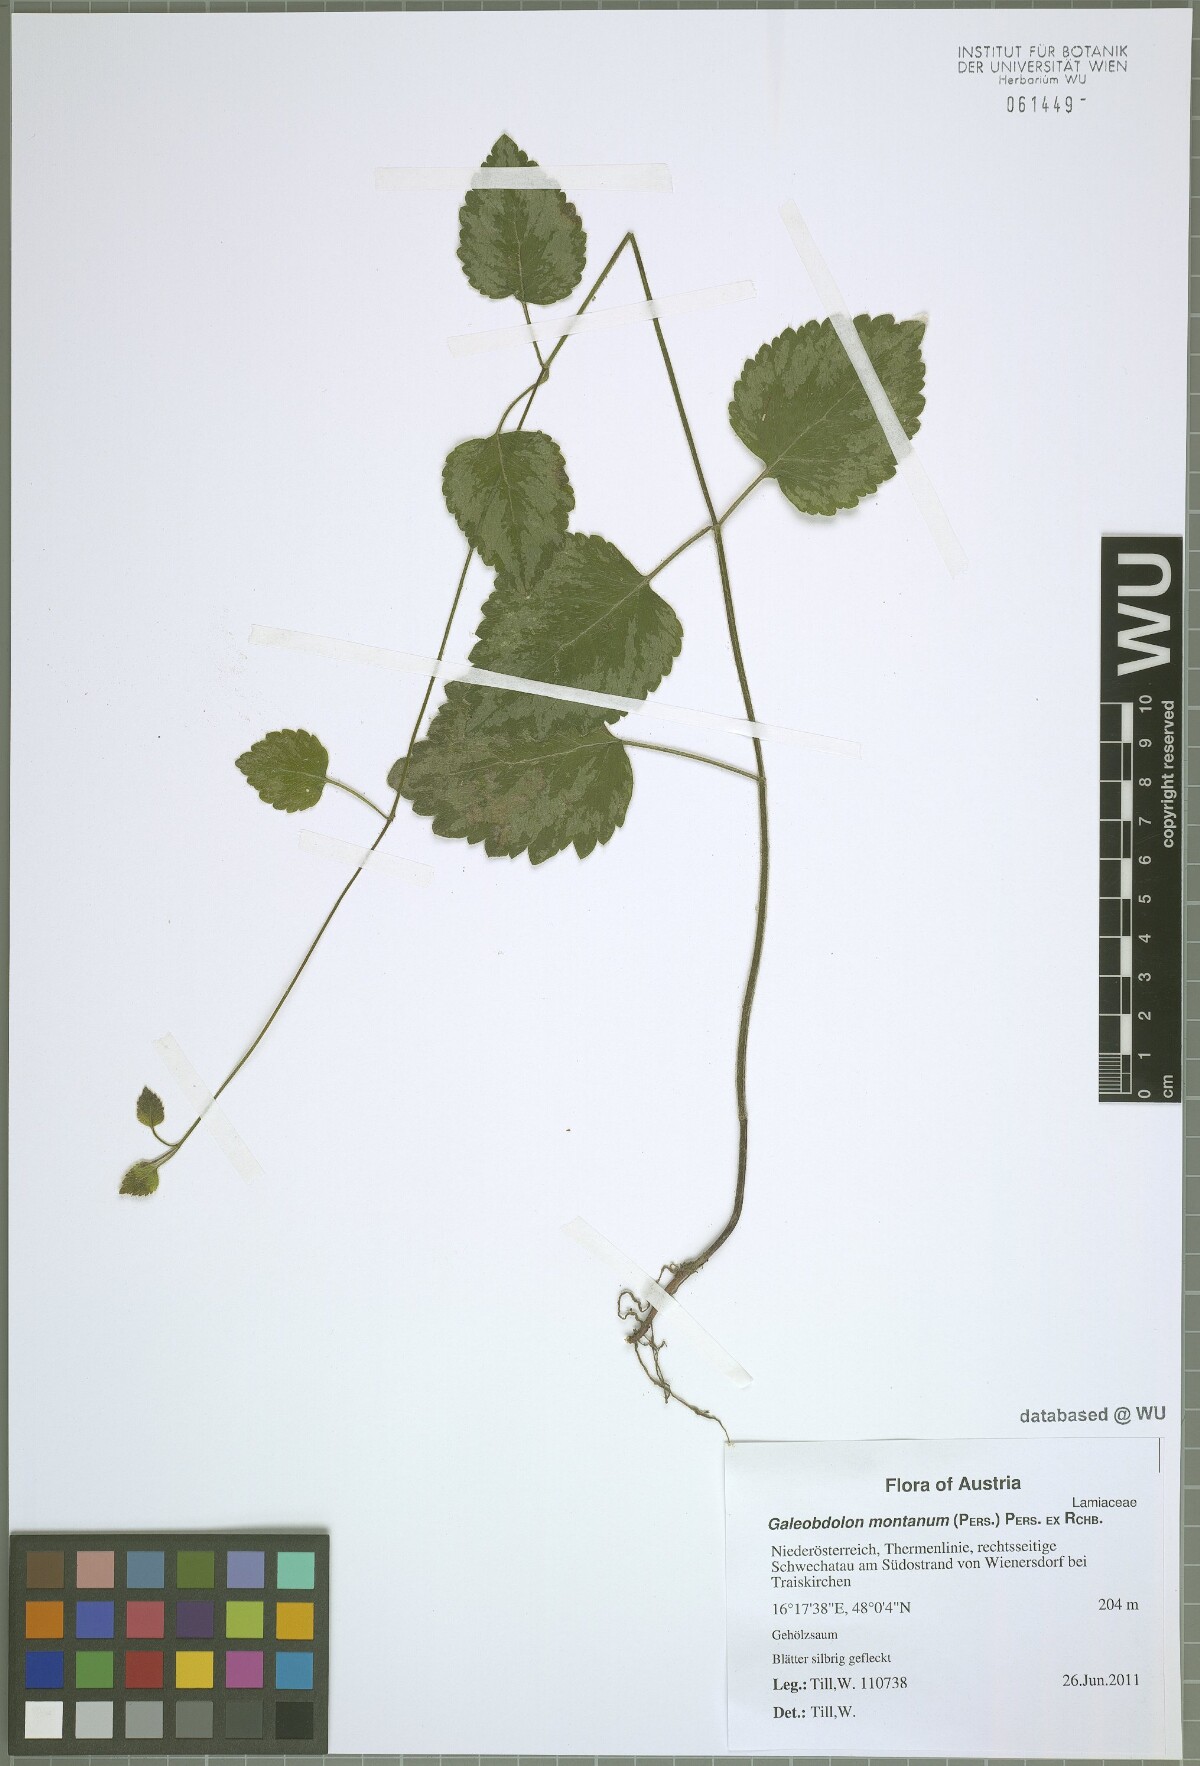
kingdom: Plantae
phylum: Tracheophyta
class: Magnoliopsida
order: Lamiales
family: Lamiaceae
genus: Lamium
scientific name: Lamium galeobdolon
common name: Yellow archangel
